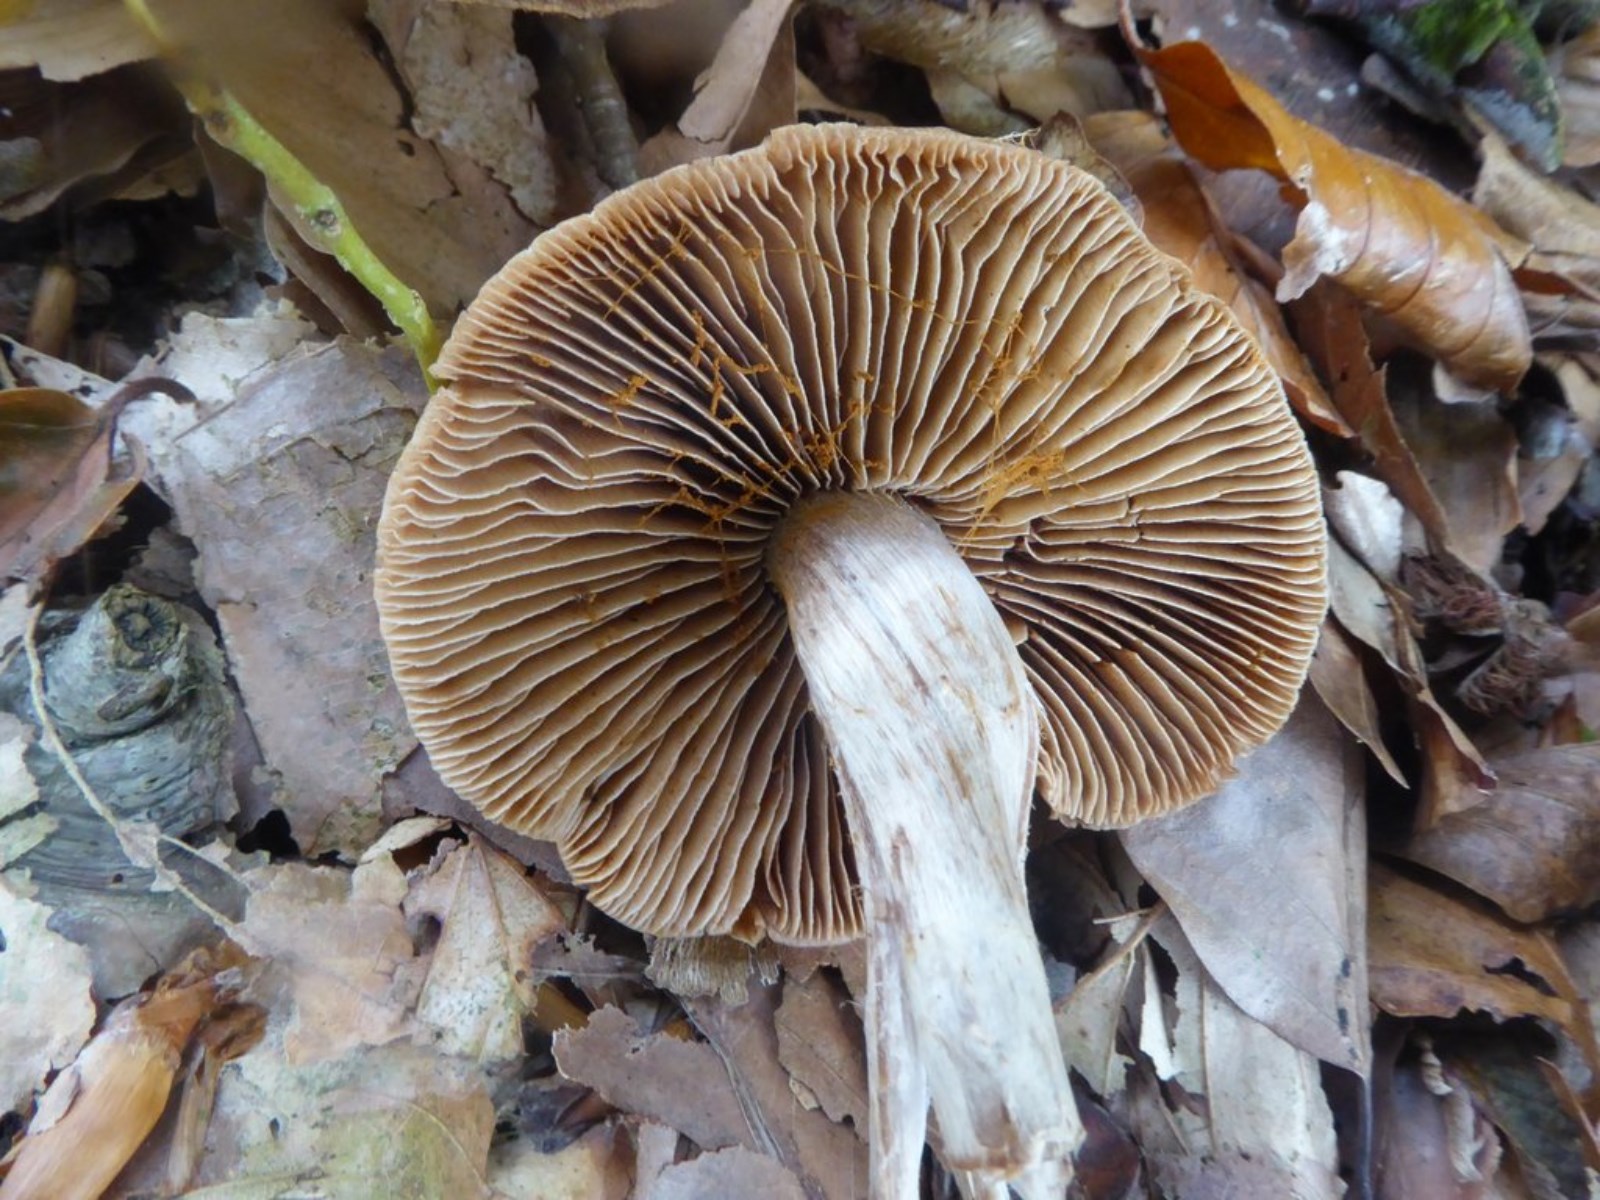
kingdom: Fungi
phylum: Basidiomycota
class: Agaricomycetes
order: Agaricales
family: Cortinariaceae
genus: Cortinarius
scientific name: Cortinarius
